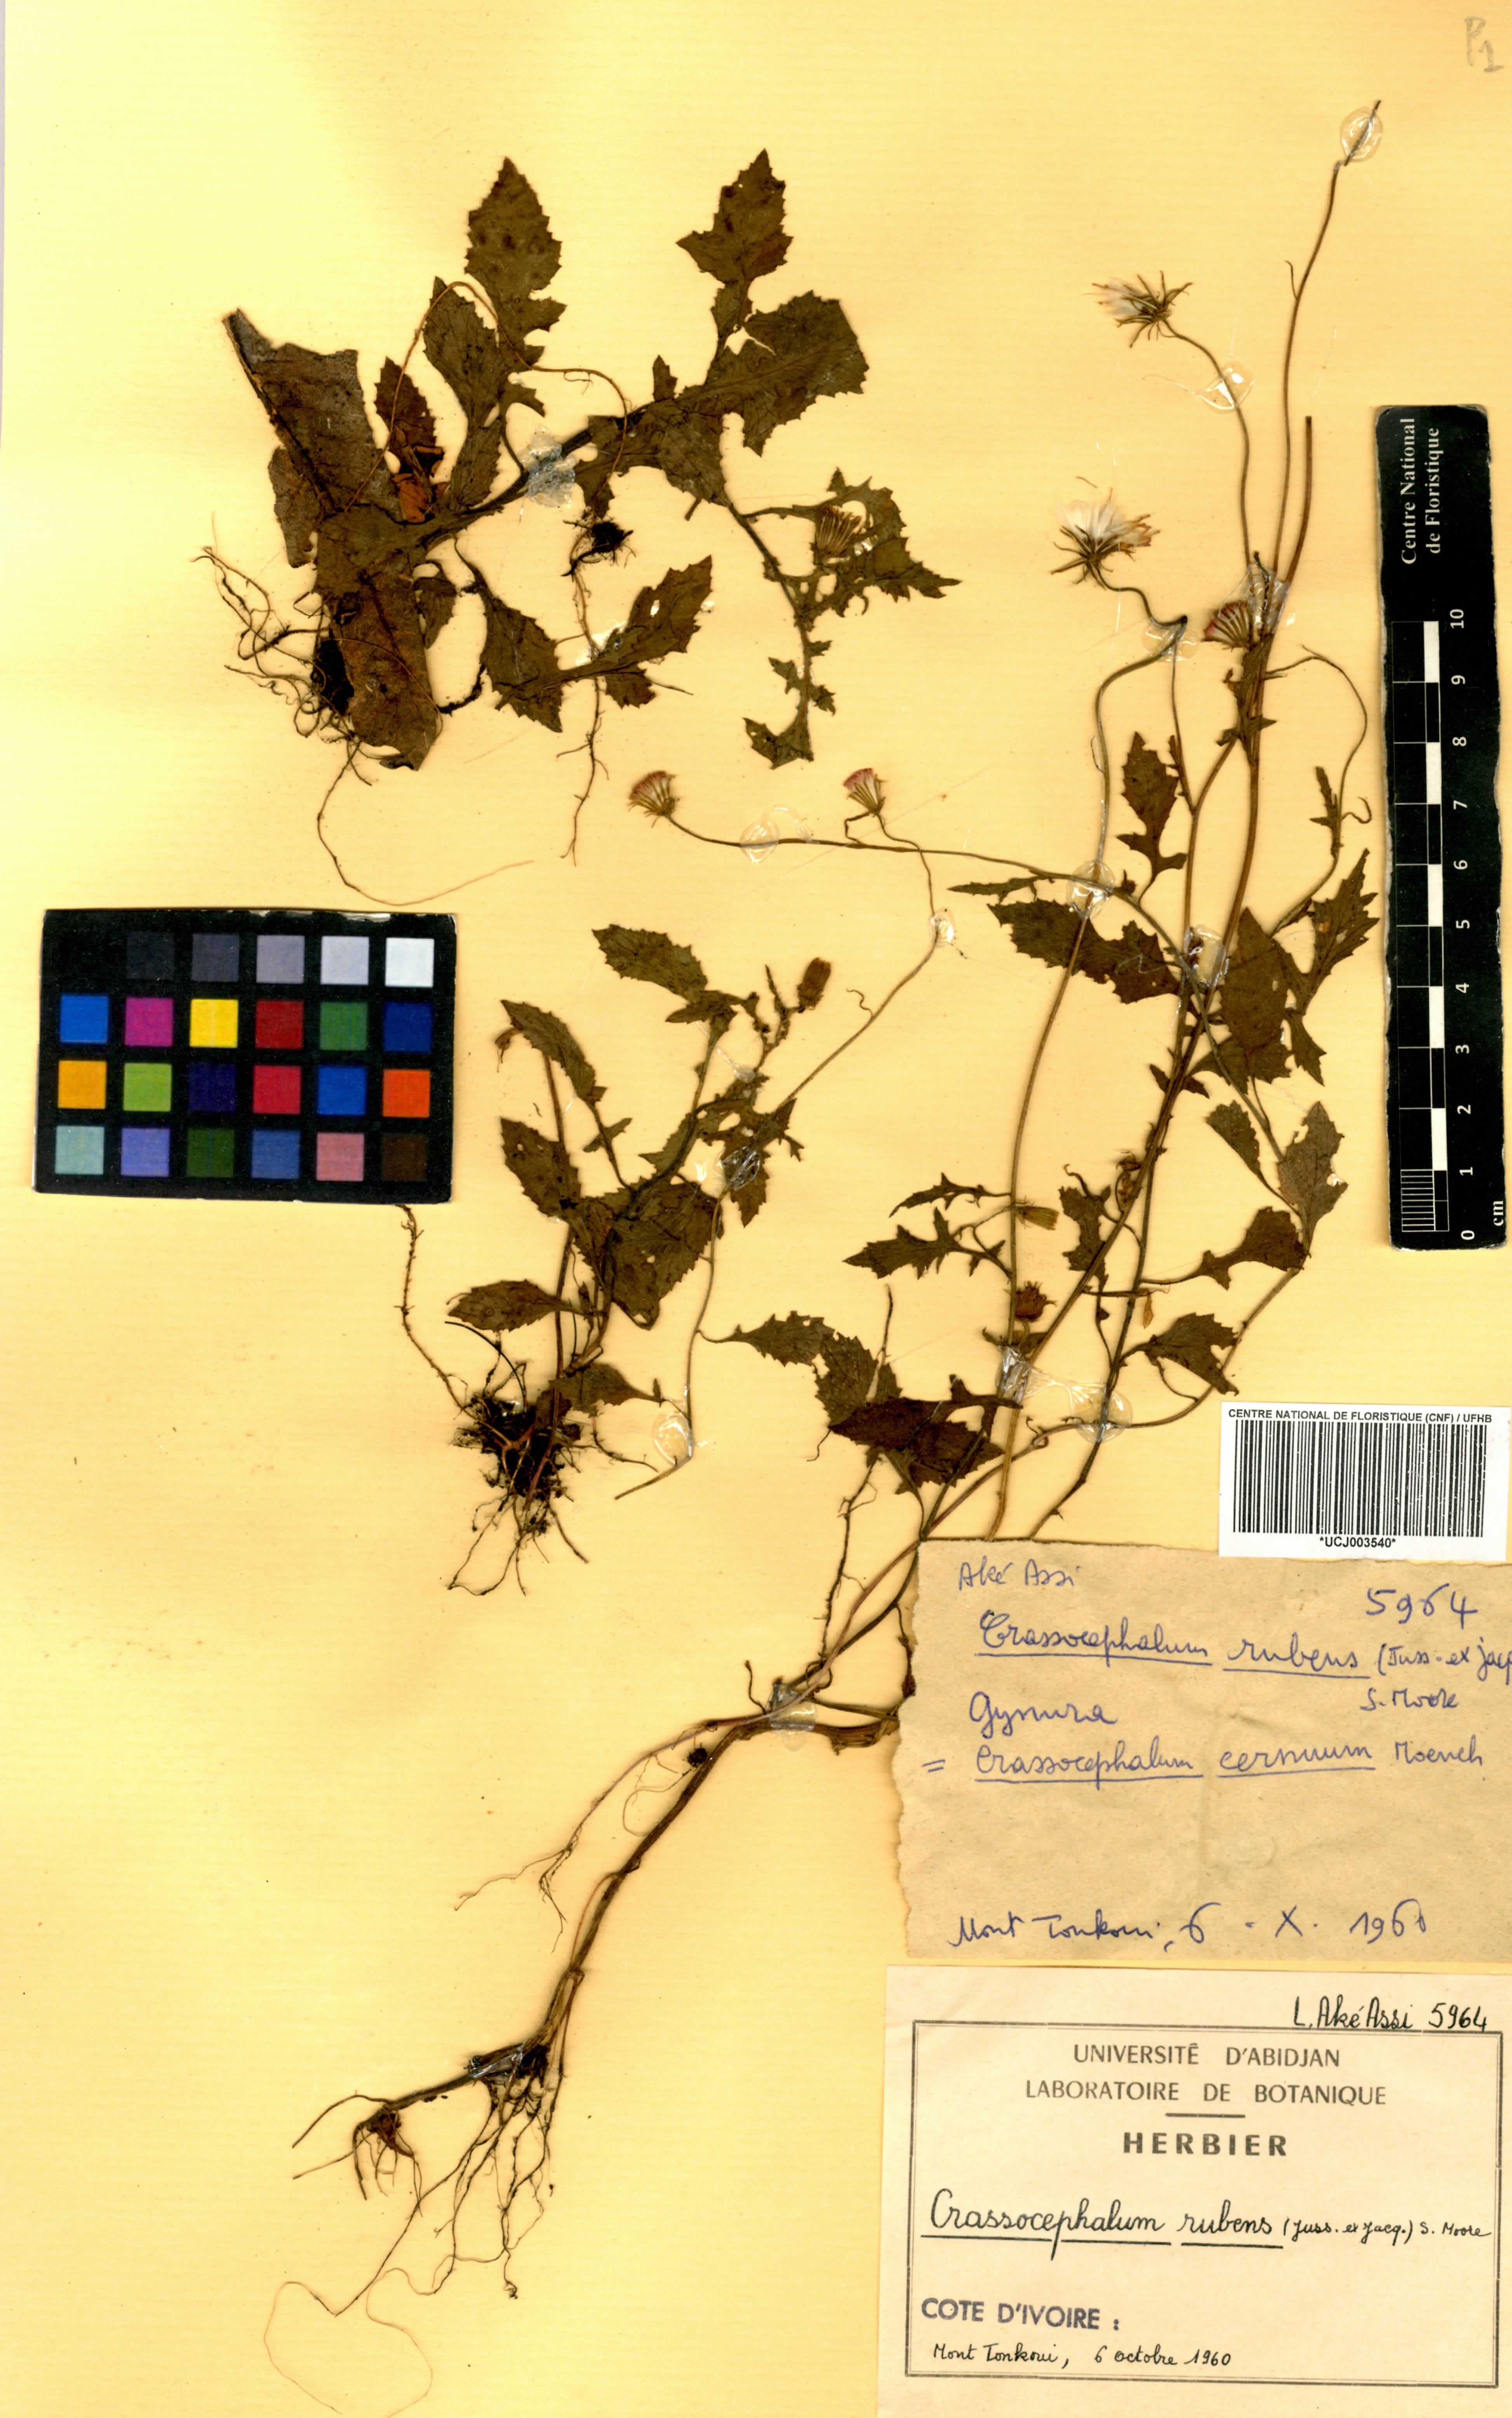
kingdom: Plantae
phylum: Tracheophyta
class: Magnoliopsida
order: Asterales
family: Asteraceae
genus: Crassocephalum
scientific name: Crassocephalum rubens
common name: Yoruban bologi
